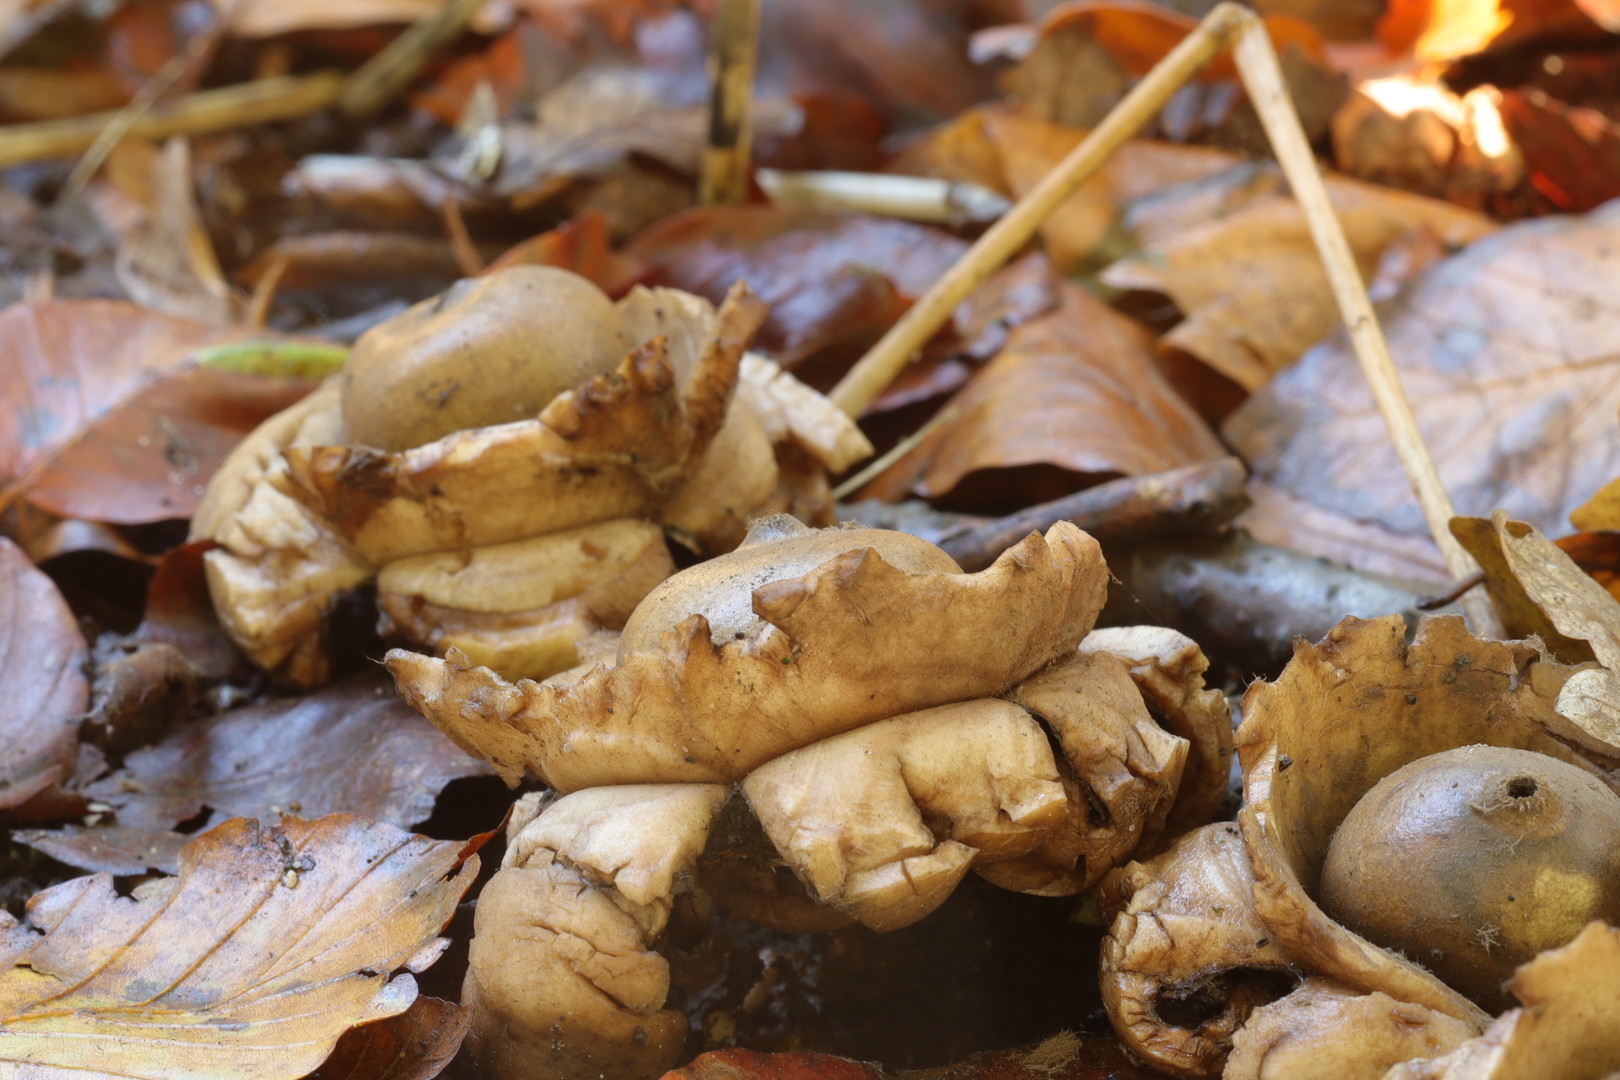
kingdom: Fungi
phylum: Basidiomycota
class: Agaricomycetes
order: Geastrales
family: Geastraceae
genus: Geastrum
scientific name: Geastrum michelianum
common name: kødet stjernebold
